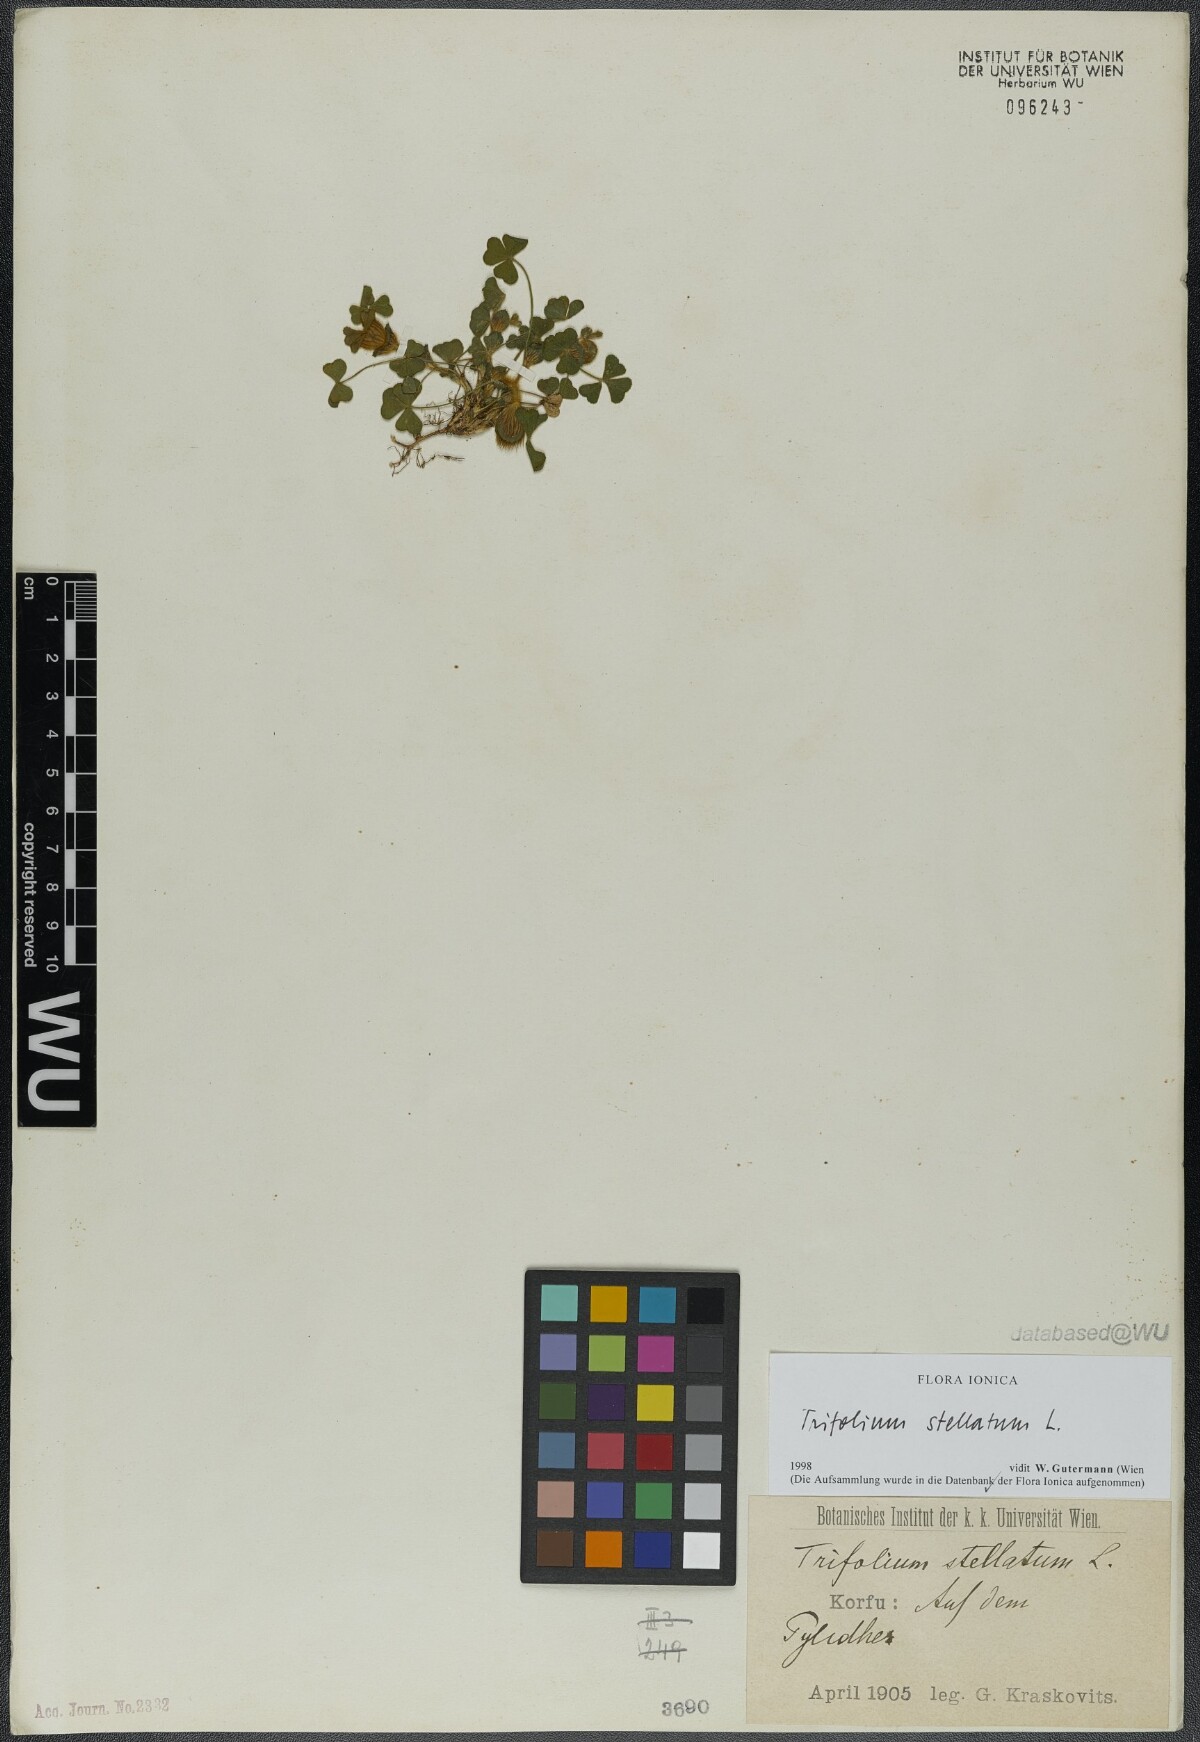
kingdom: Plantae
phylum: Tracheophyta
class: Magnoliopsida
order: Fabales
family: Fabaceae
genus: Trifolium
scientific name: Trifolium stellatum
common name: Starry clover
